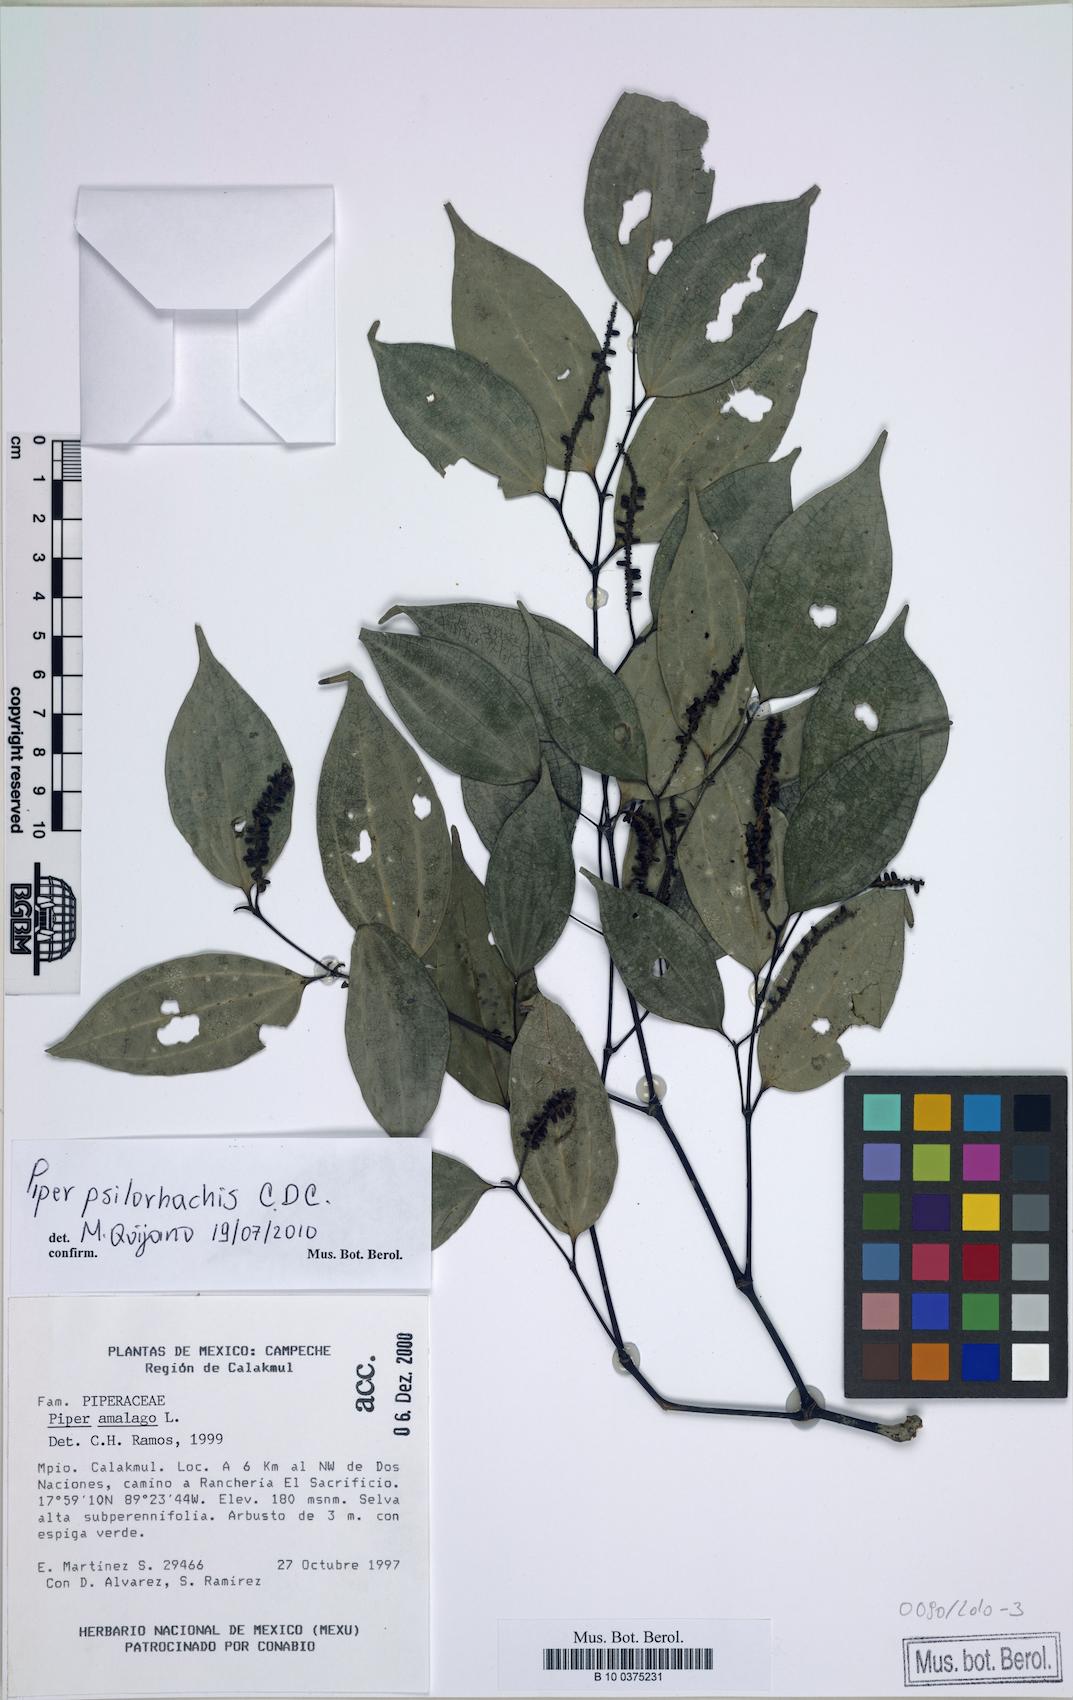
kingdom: Plantae
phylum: Tracheophyta
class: Magnoliopsida
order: Piperales
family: Piperaceae
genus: Piper
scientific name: Piper psilorhachis
